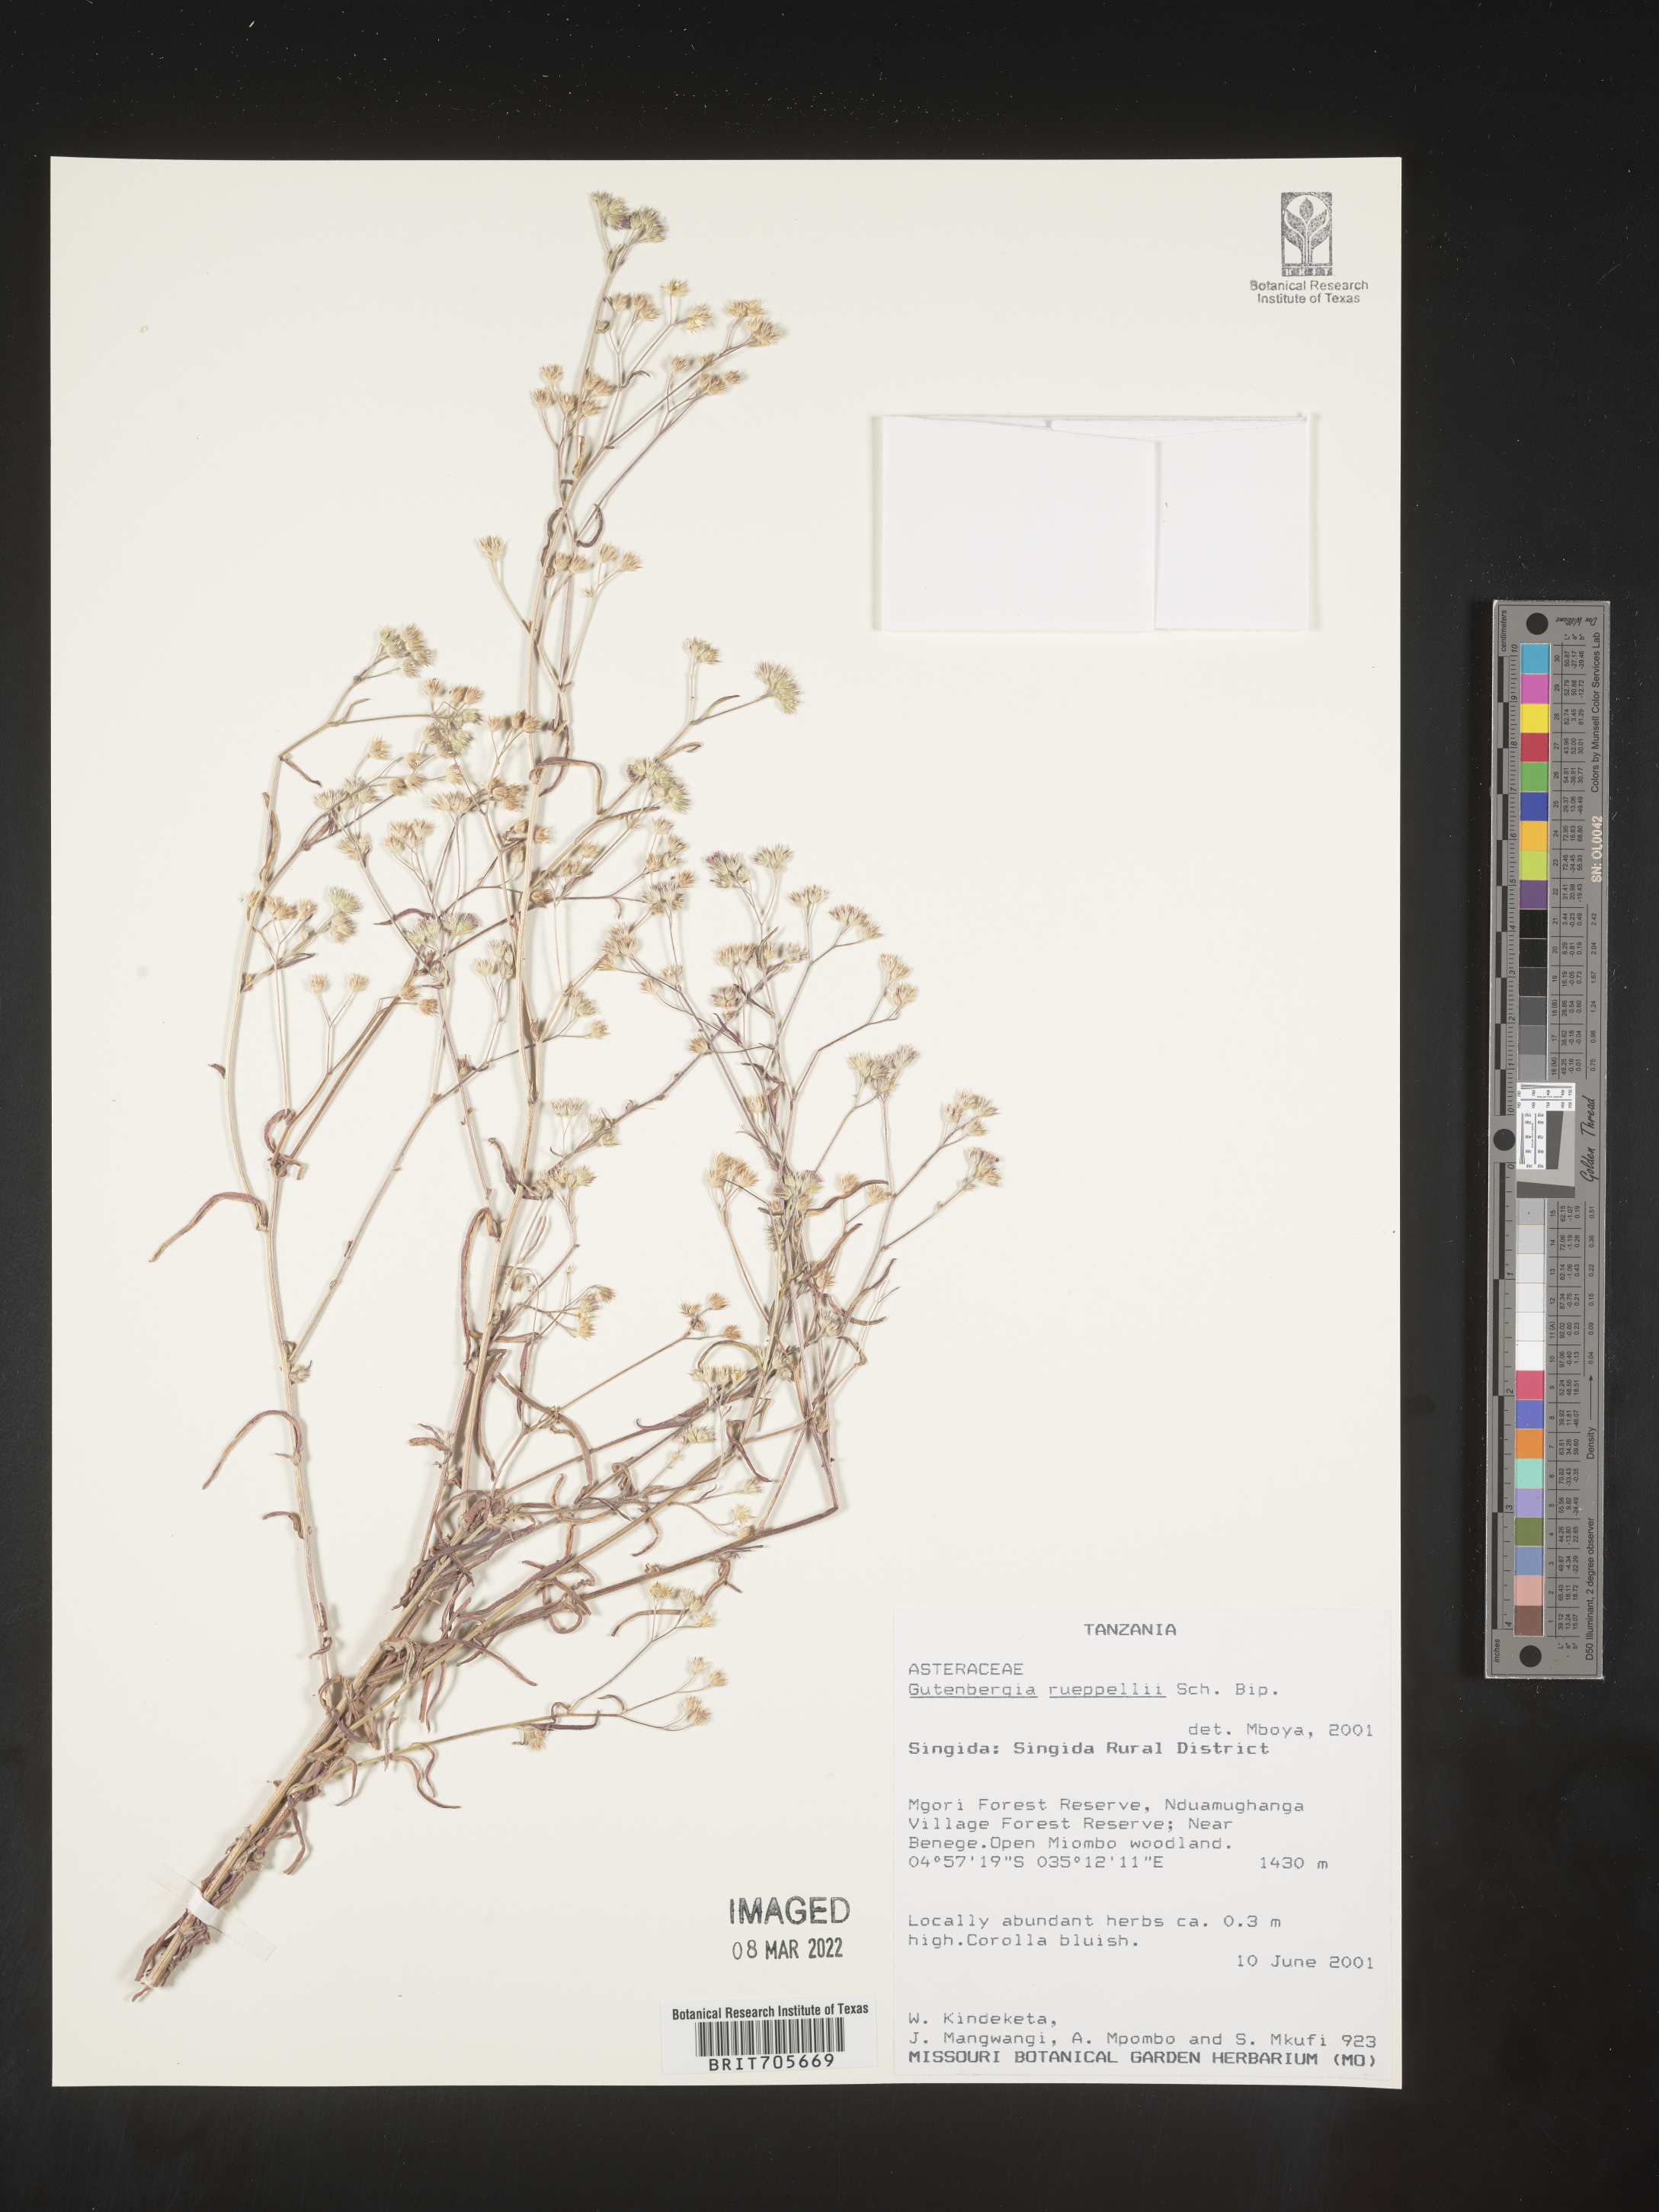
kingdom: Plantae
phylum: Tracheophyta
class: Magnoliopsida
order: Asterales
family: Asteraceae
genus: Gutenbergia
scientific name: Gutenbergia
